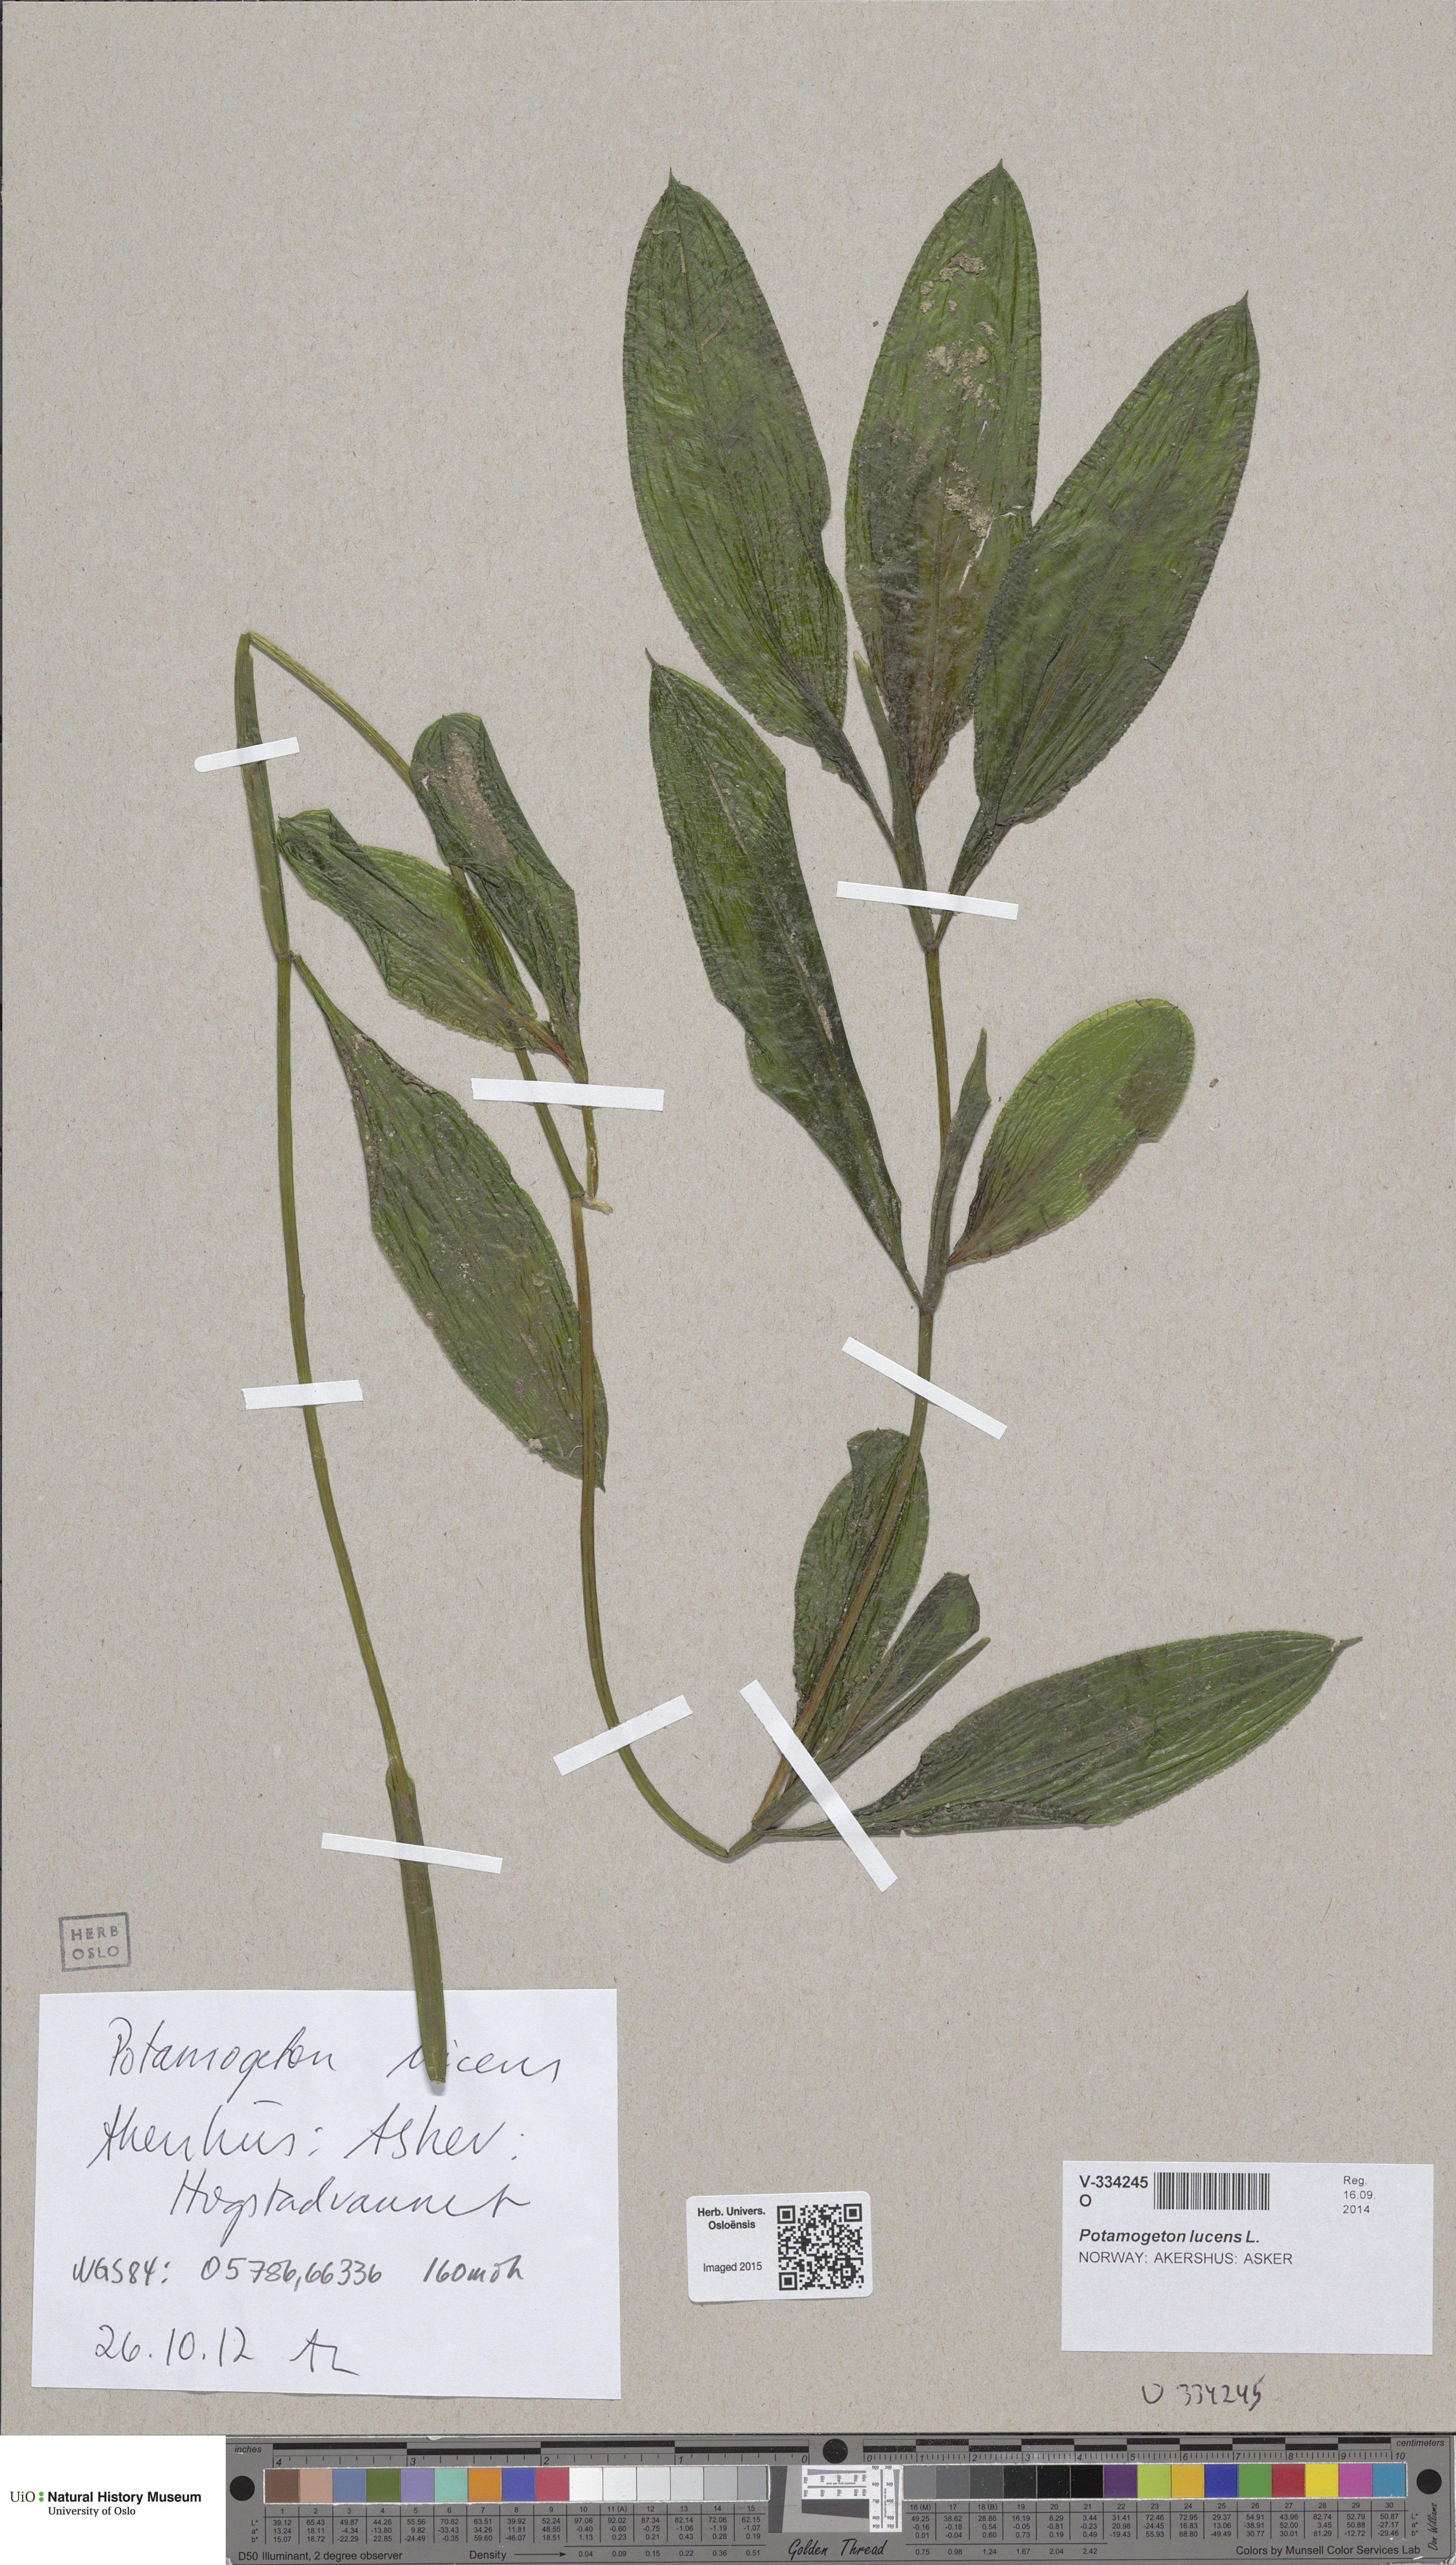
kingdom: Plantae
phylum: Tracheophyta
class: Liliopsida
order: Alismatales
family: Potamogetonaceae
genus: Potamogeton
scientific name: Potamogeton lucens
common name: Shining pondweed
